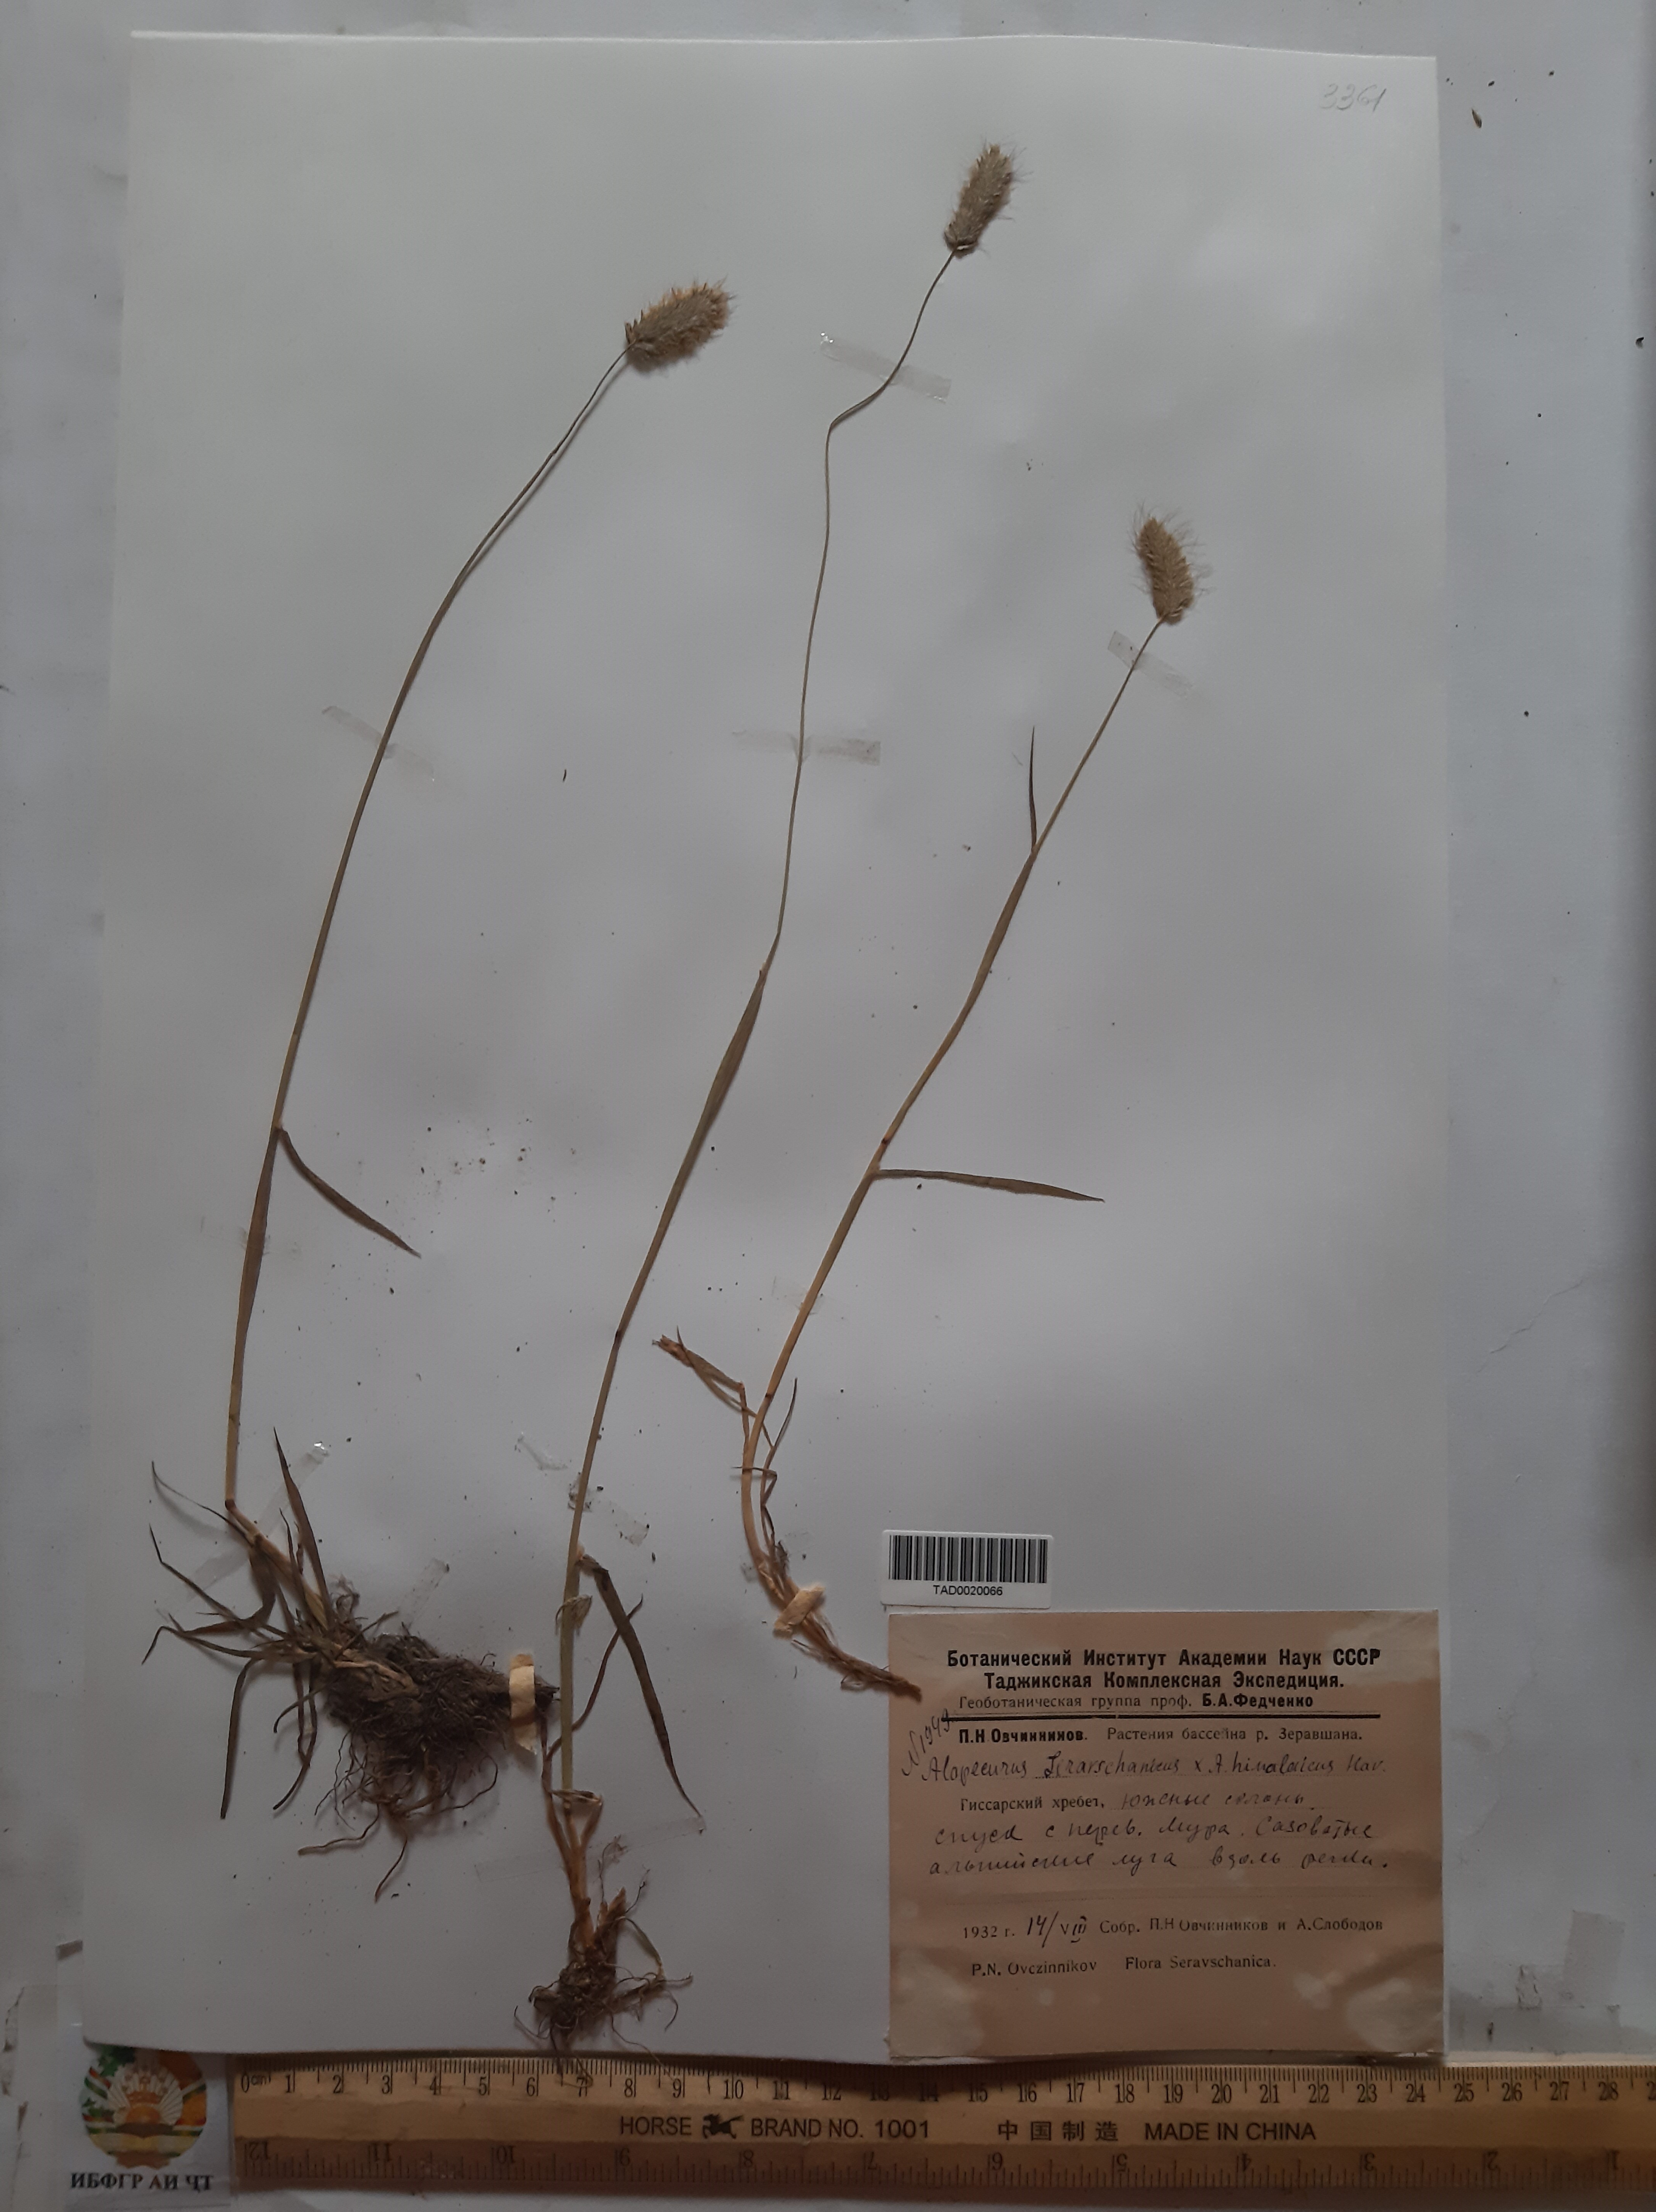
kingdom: Plantae
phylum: Tracheophyta
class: Liliopsida
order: Poales
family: Poaceae
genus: Alopecurus
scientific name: Alopecurus pratensis
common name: Meadow foxtail
